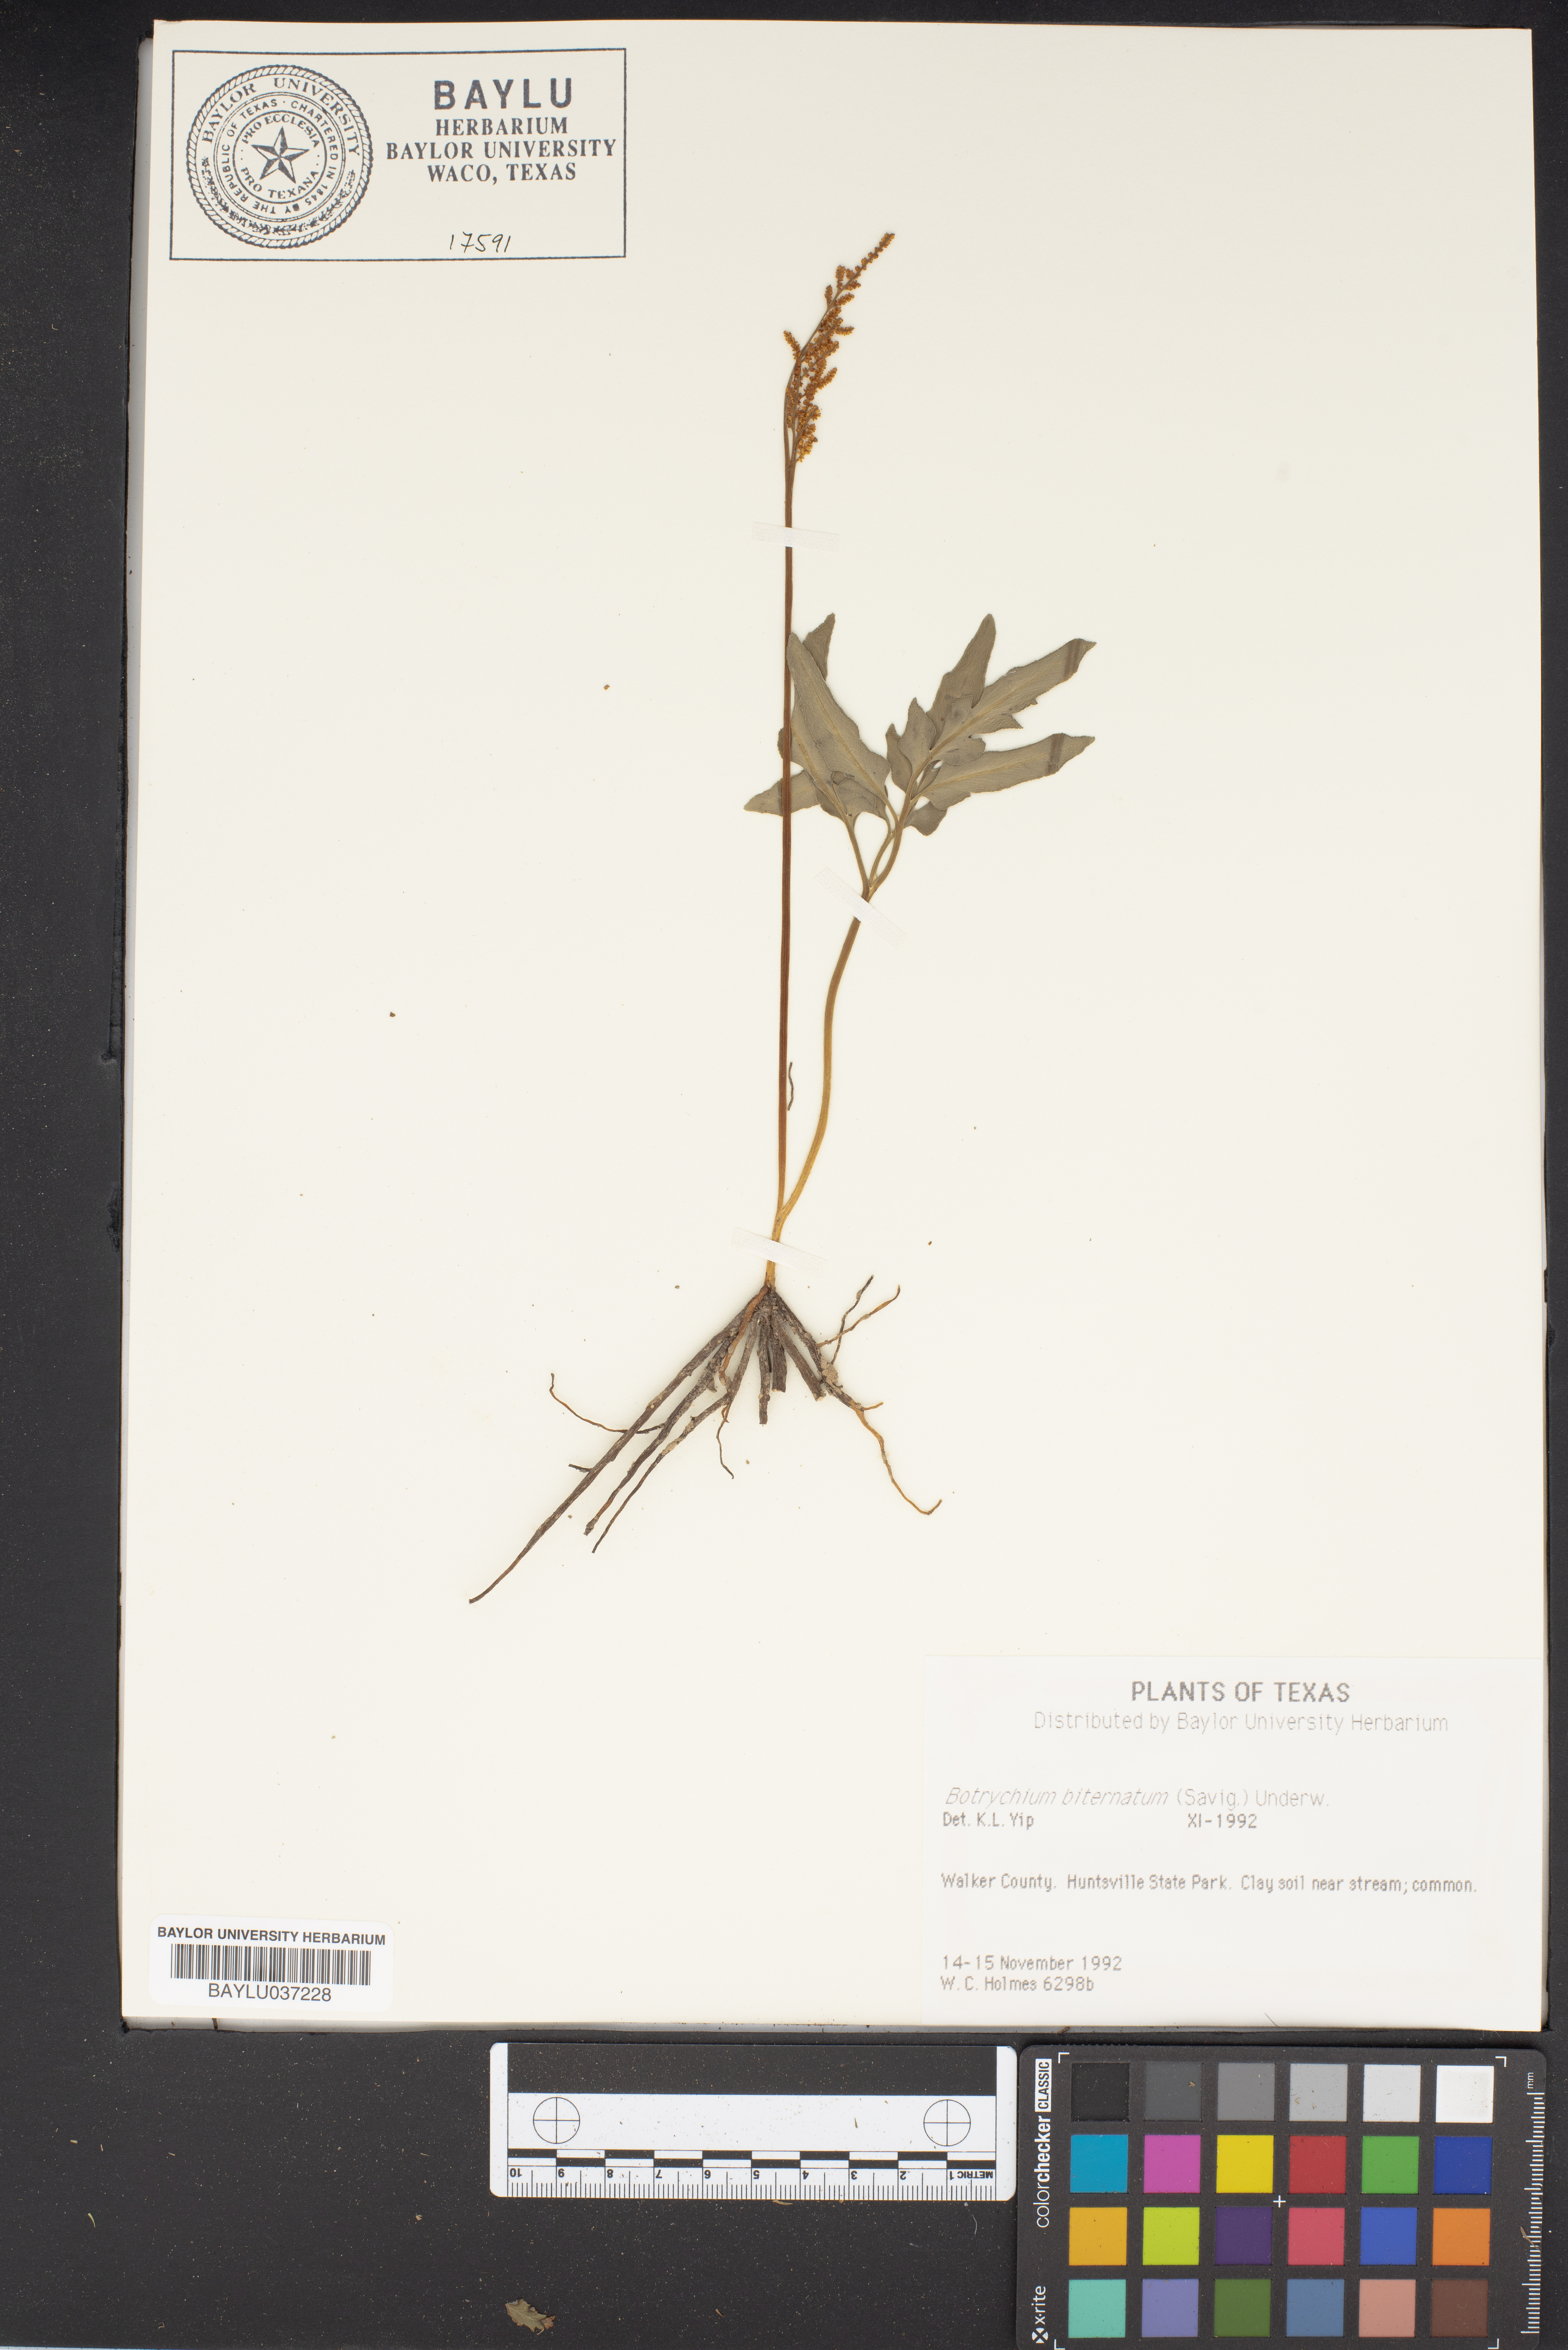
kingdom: Plantae
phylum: Tracheophyta
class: Polypodiopsida
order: Ophioglossales
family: Ophioglossaceae
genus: Sceptridium
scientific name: Sceptridium biternatum
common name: Sparse-lobed grapefern
